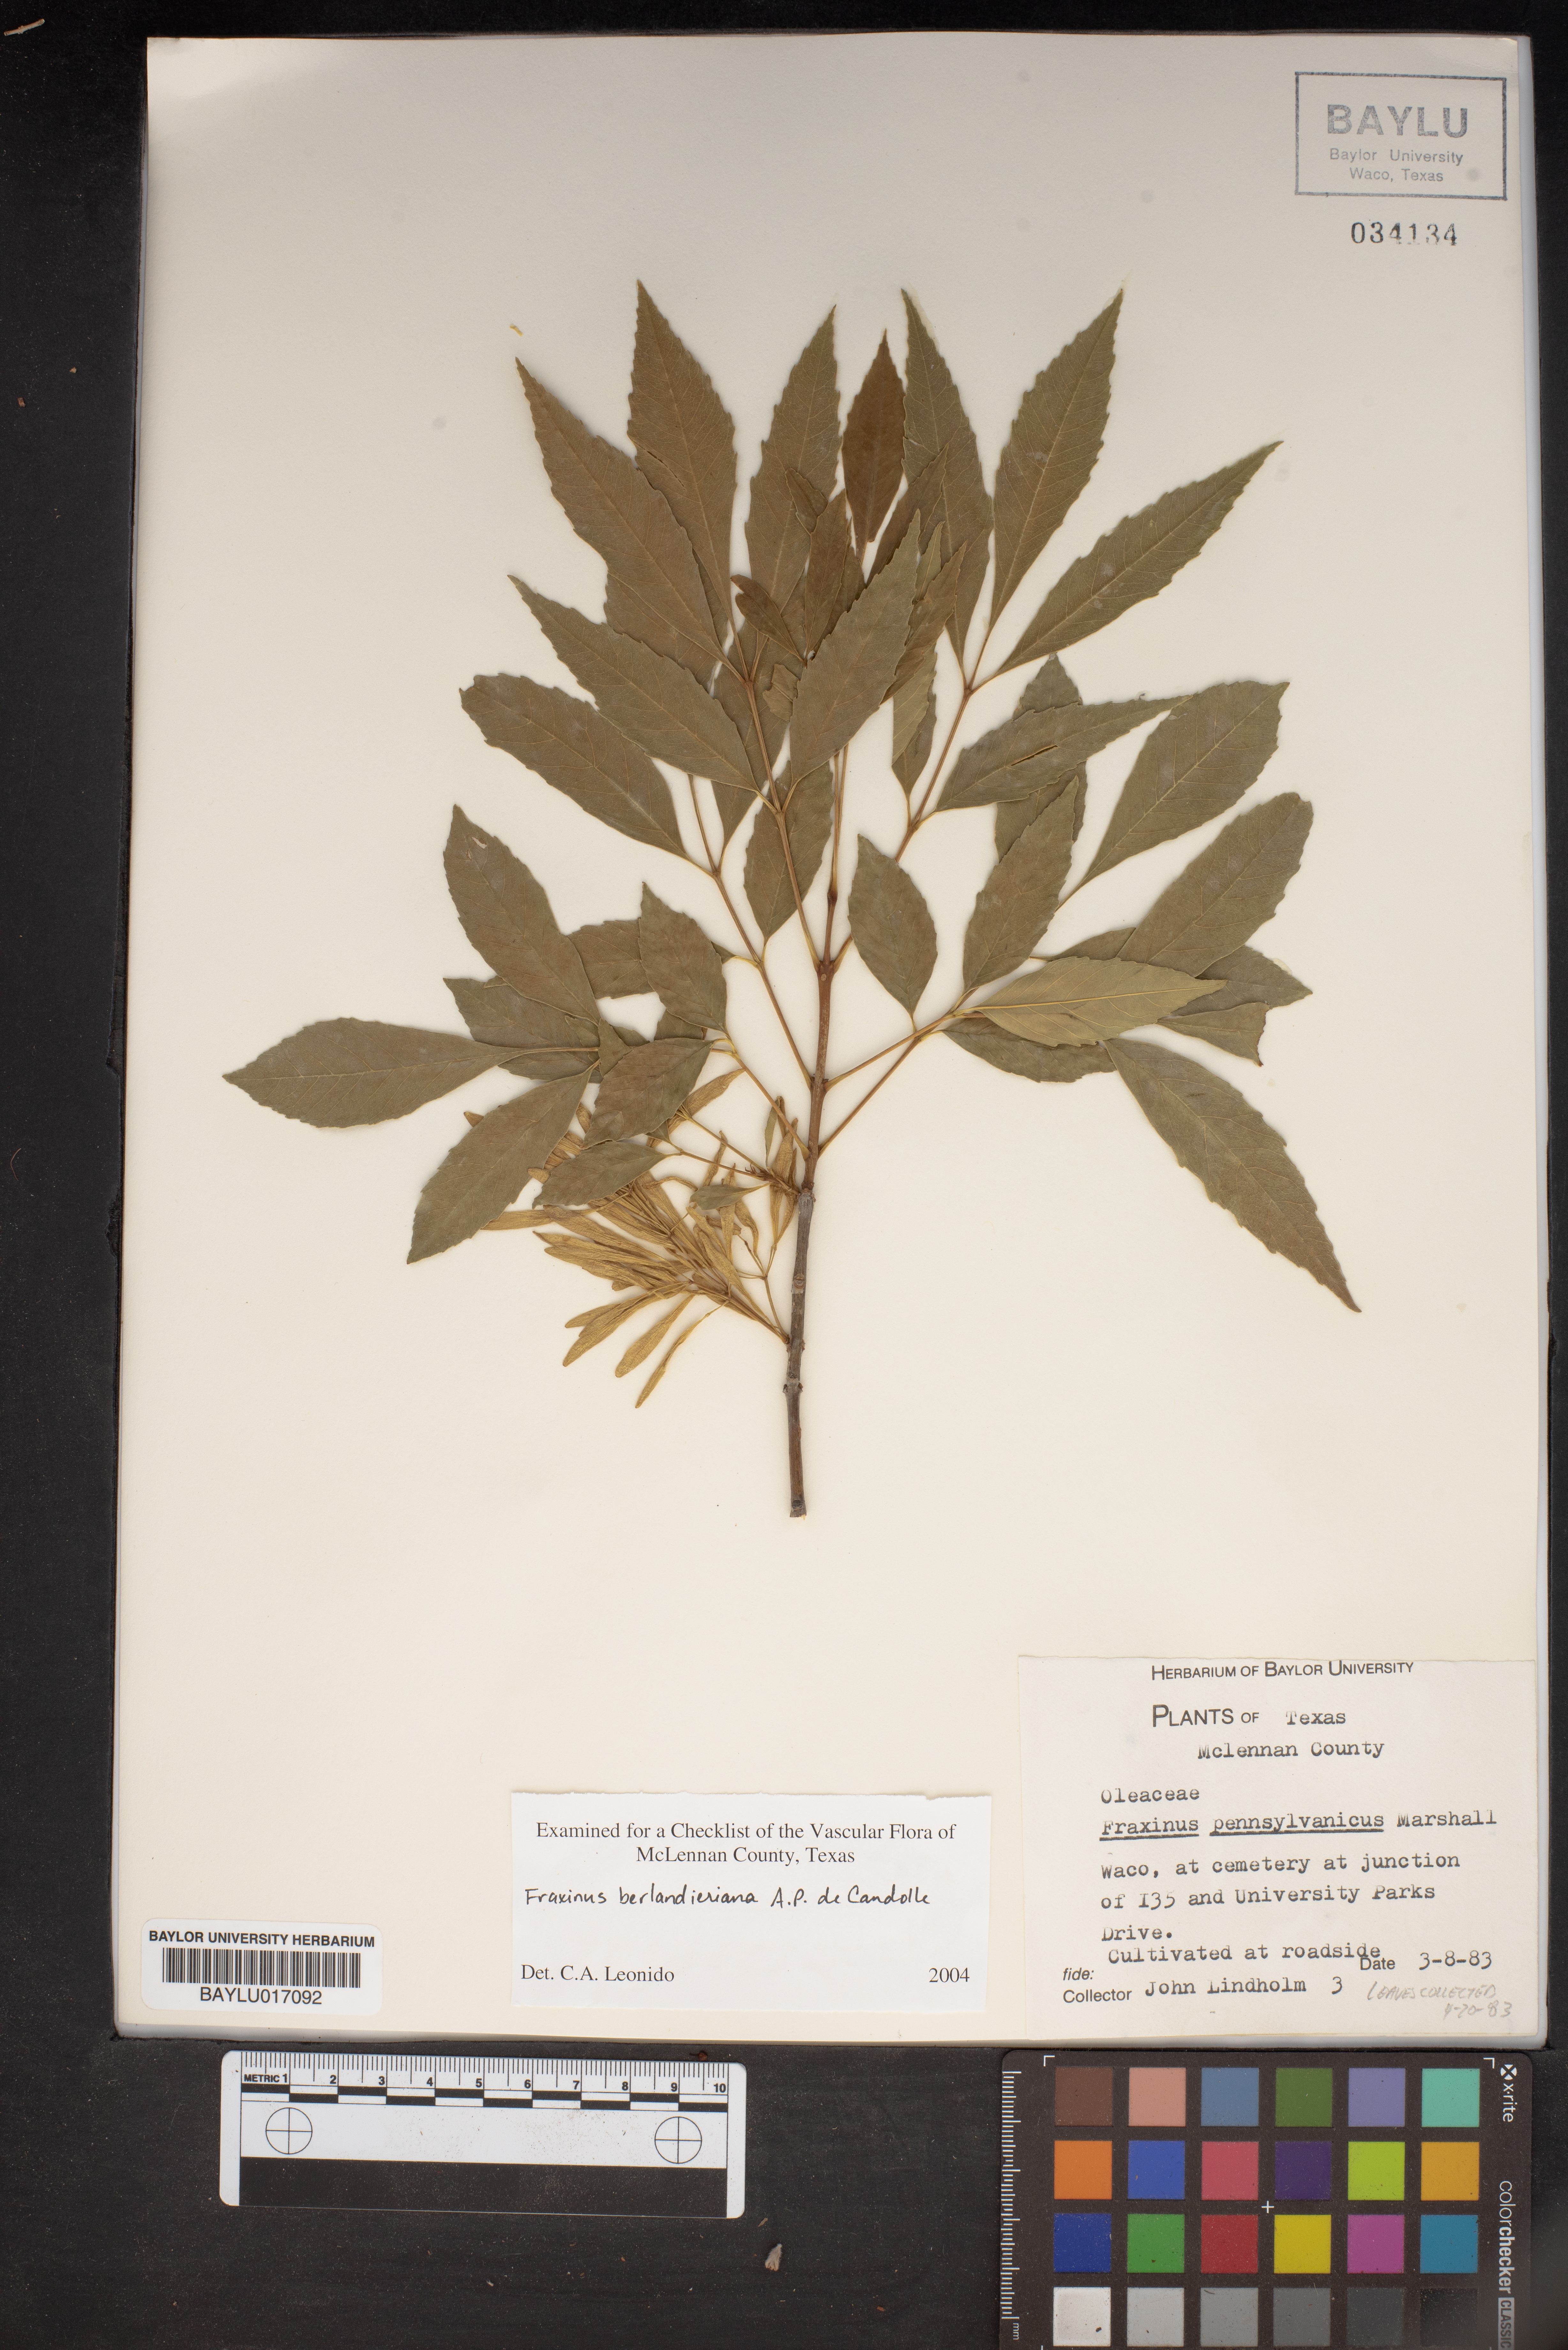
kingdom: Plantae
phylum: Tracheophyta
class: Magnoliopsida
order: Lamiales
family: Oleaceae
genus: Fraxinus
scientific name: Fraxinus berlandieriana
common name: Berlandier ash
